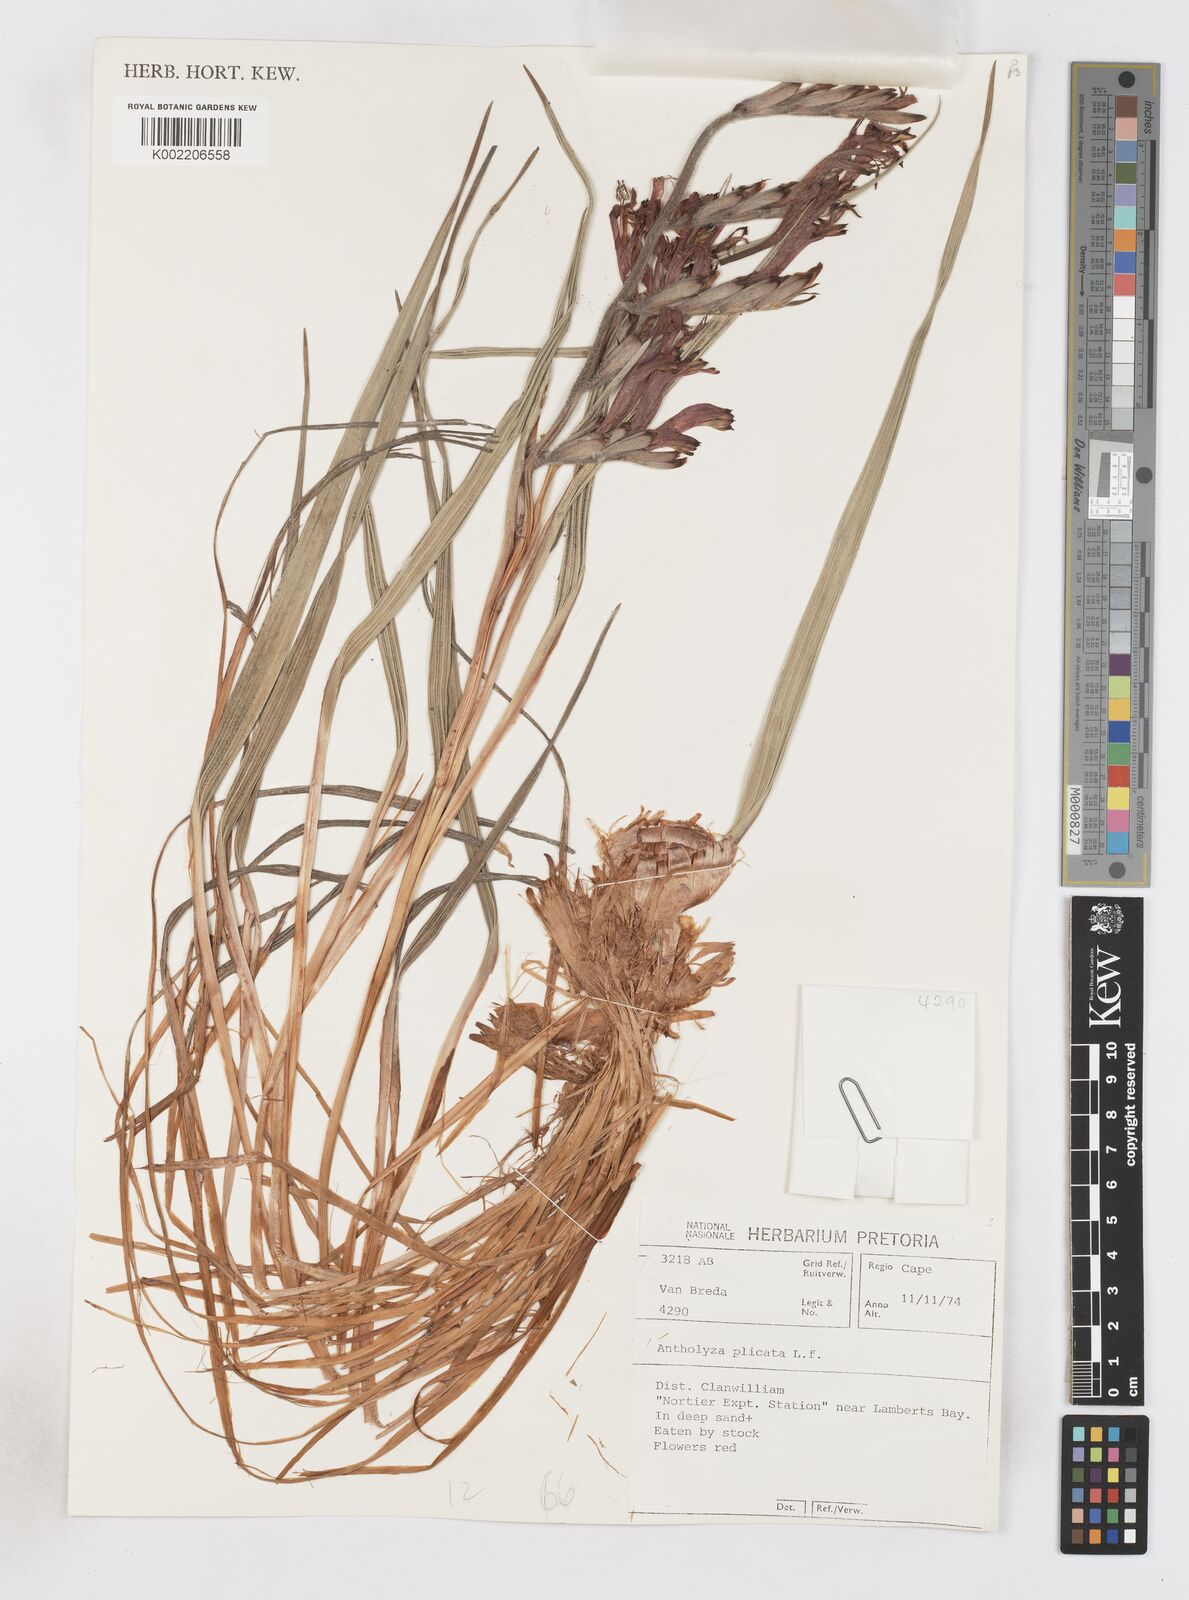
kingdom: Plantae
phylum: Tracheophyta
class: Liliopsida
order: Asparagales
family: Iridaceae
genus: Babiana
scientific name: Babiana villosula
